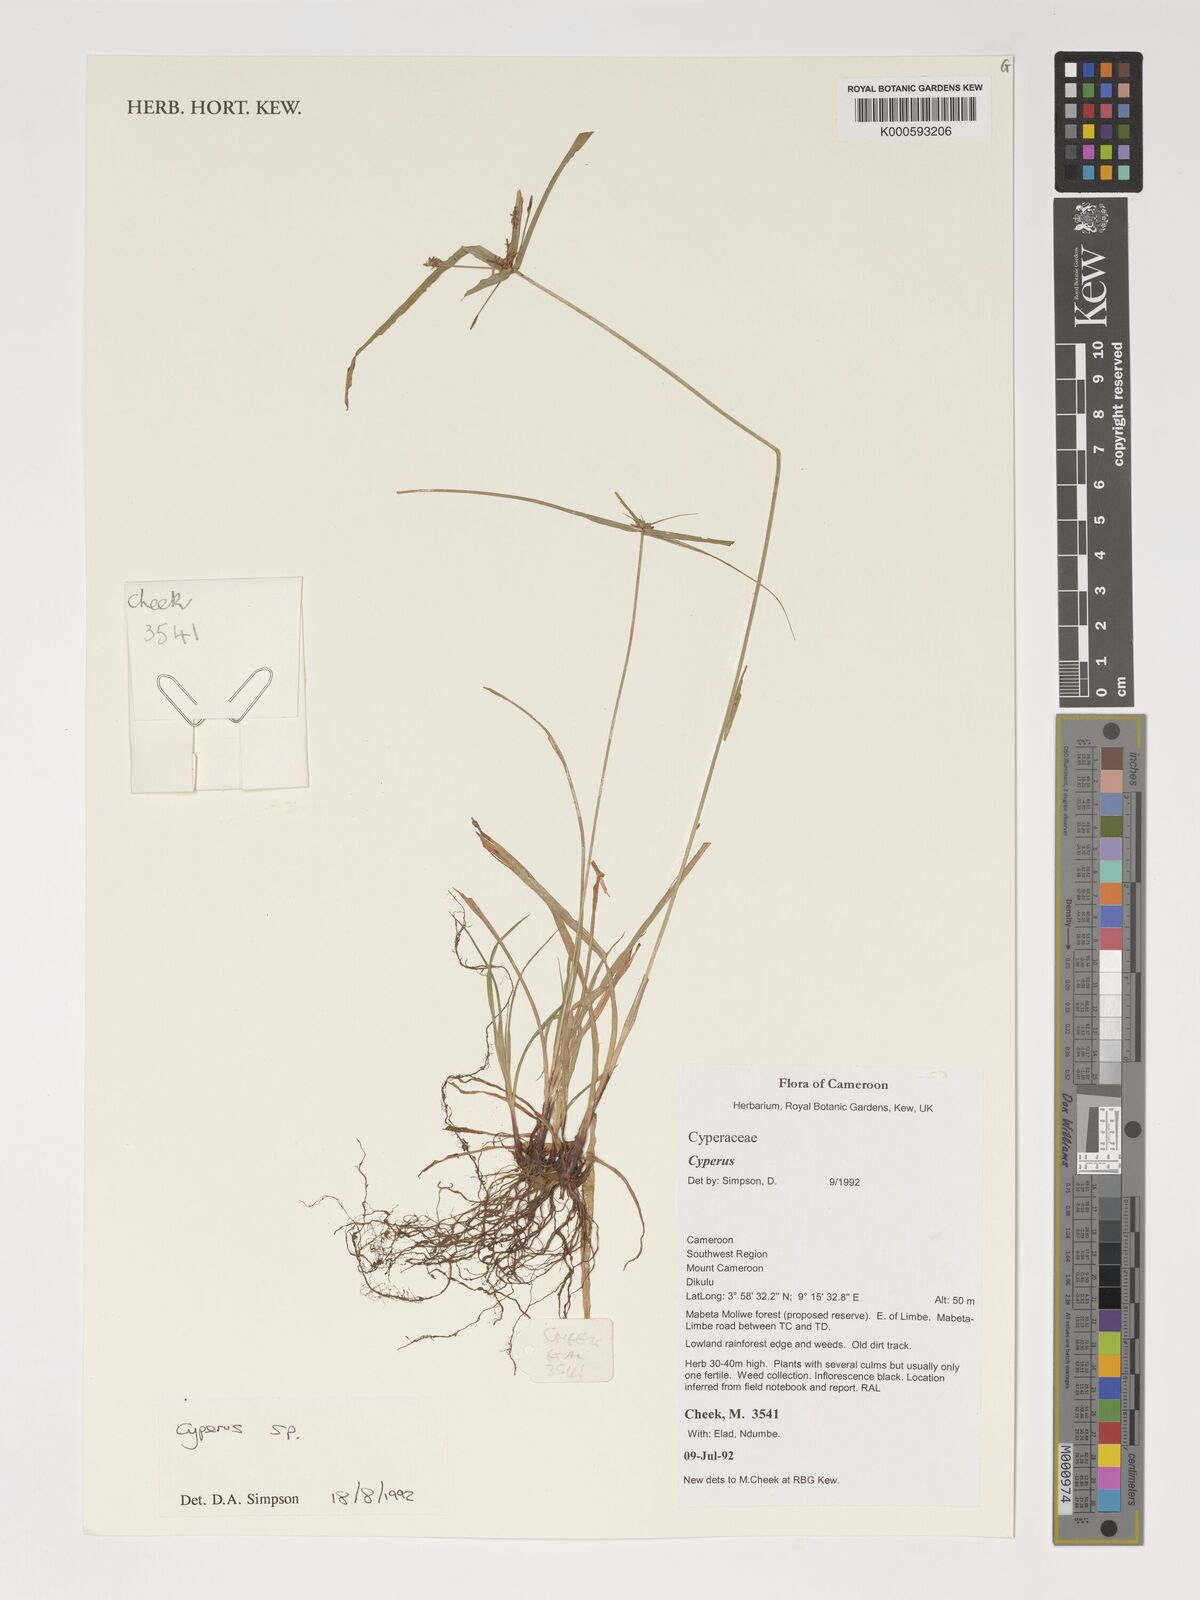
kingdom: Plantae
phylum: Tracheophyta
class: Liliopsida
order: Poales
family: Cyperaceae
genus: Cyperus
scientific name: Cyperus
